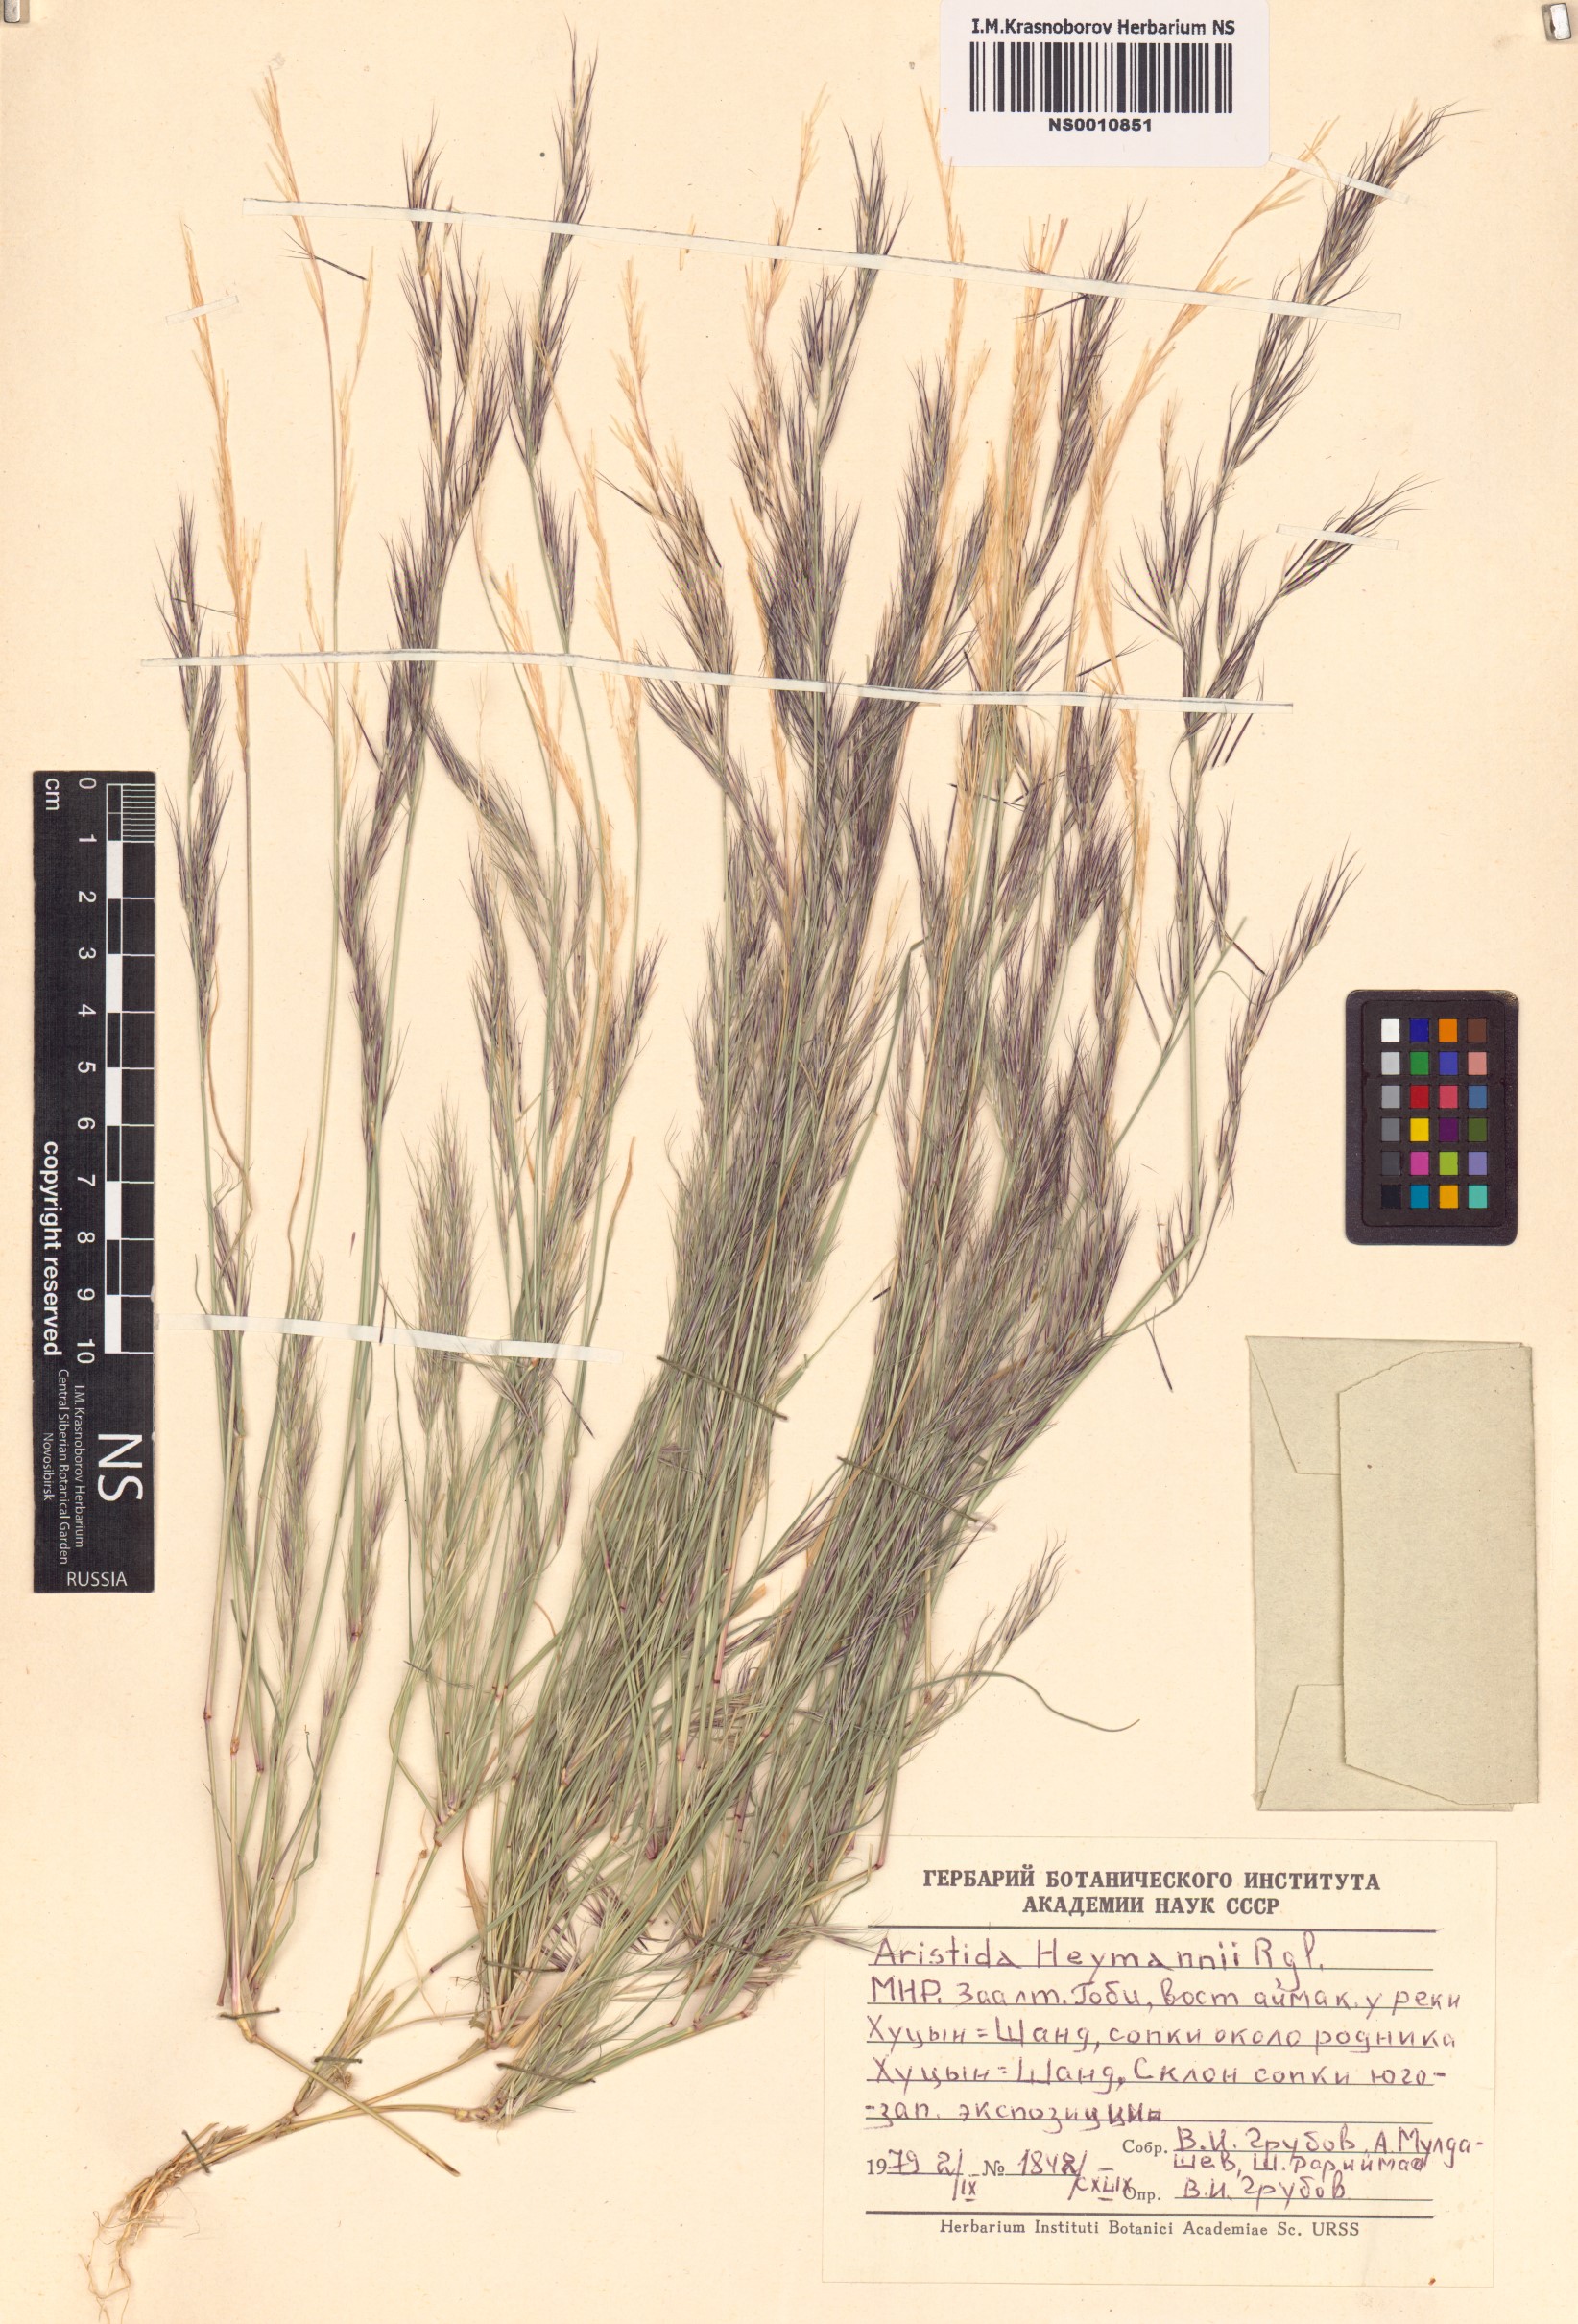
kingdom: Plantae
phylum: Tracheophyta
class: Liliopsida
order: Poales
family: Poaceae
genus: Aristida
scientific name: Aristida adscensionis
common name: Sixweeks threeawn
